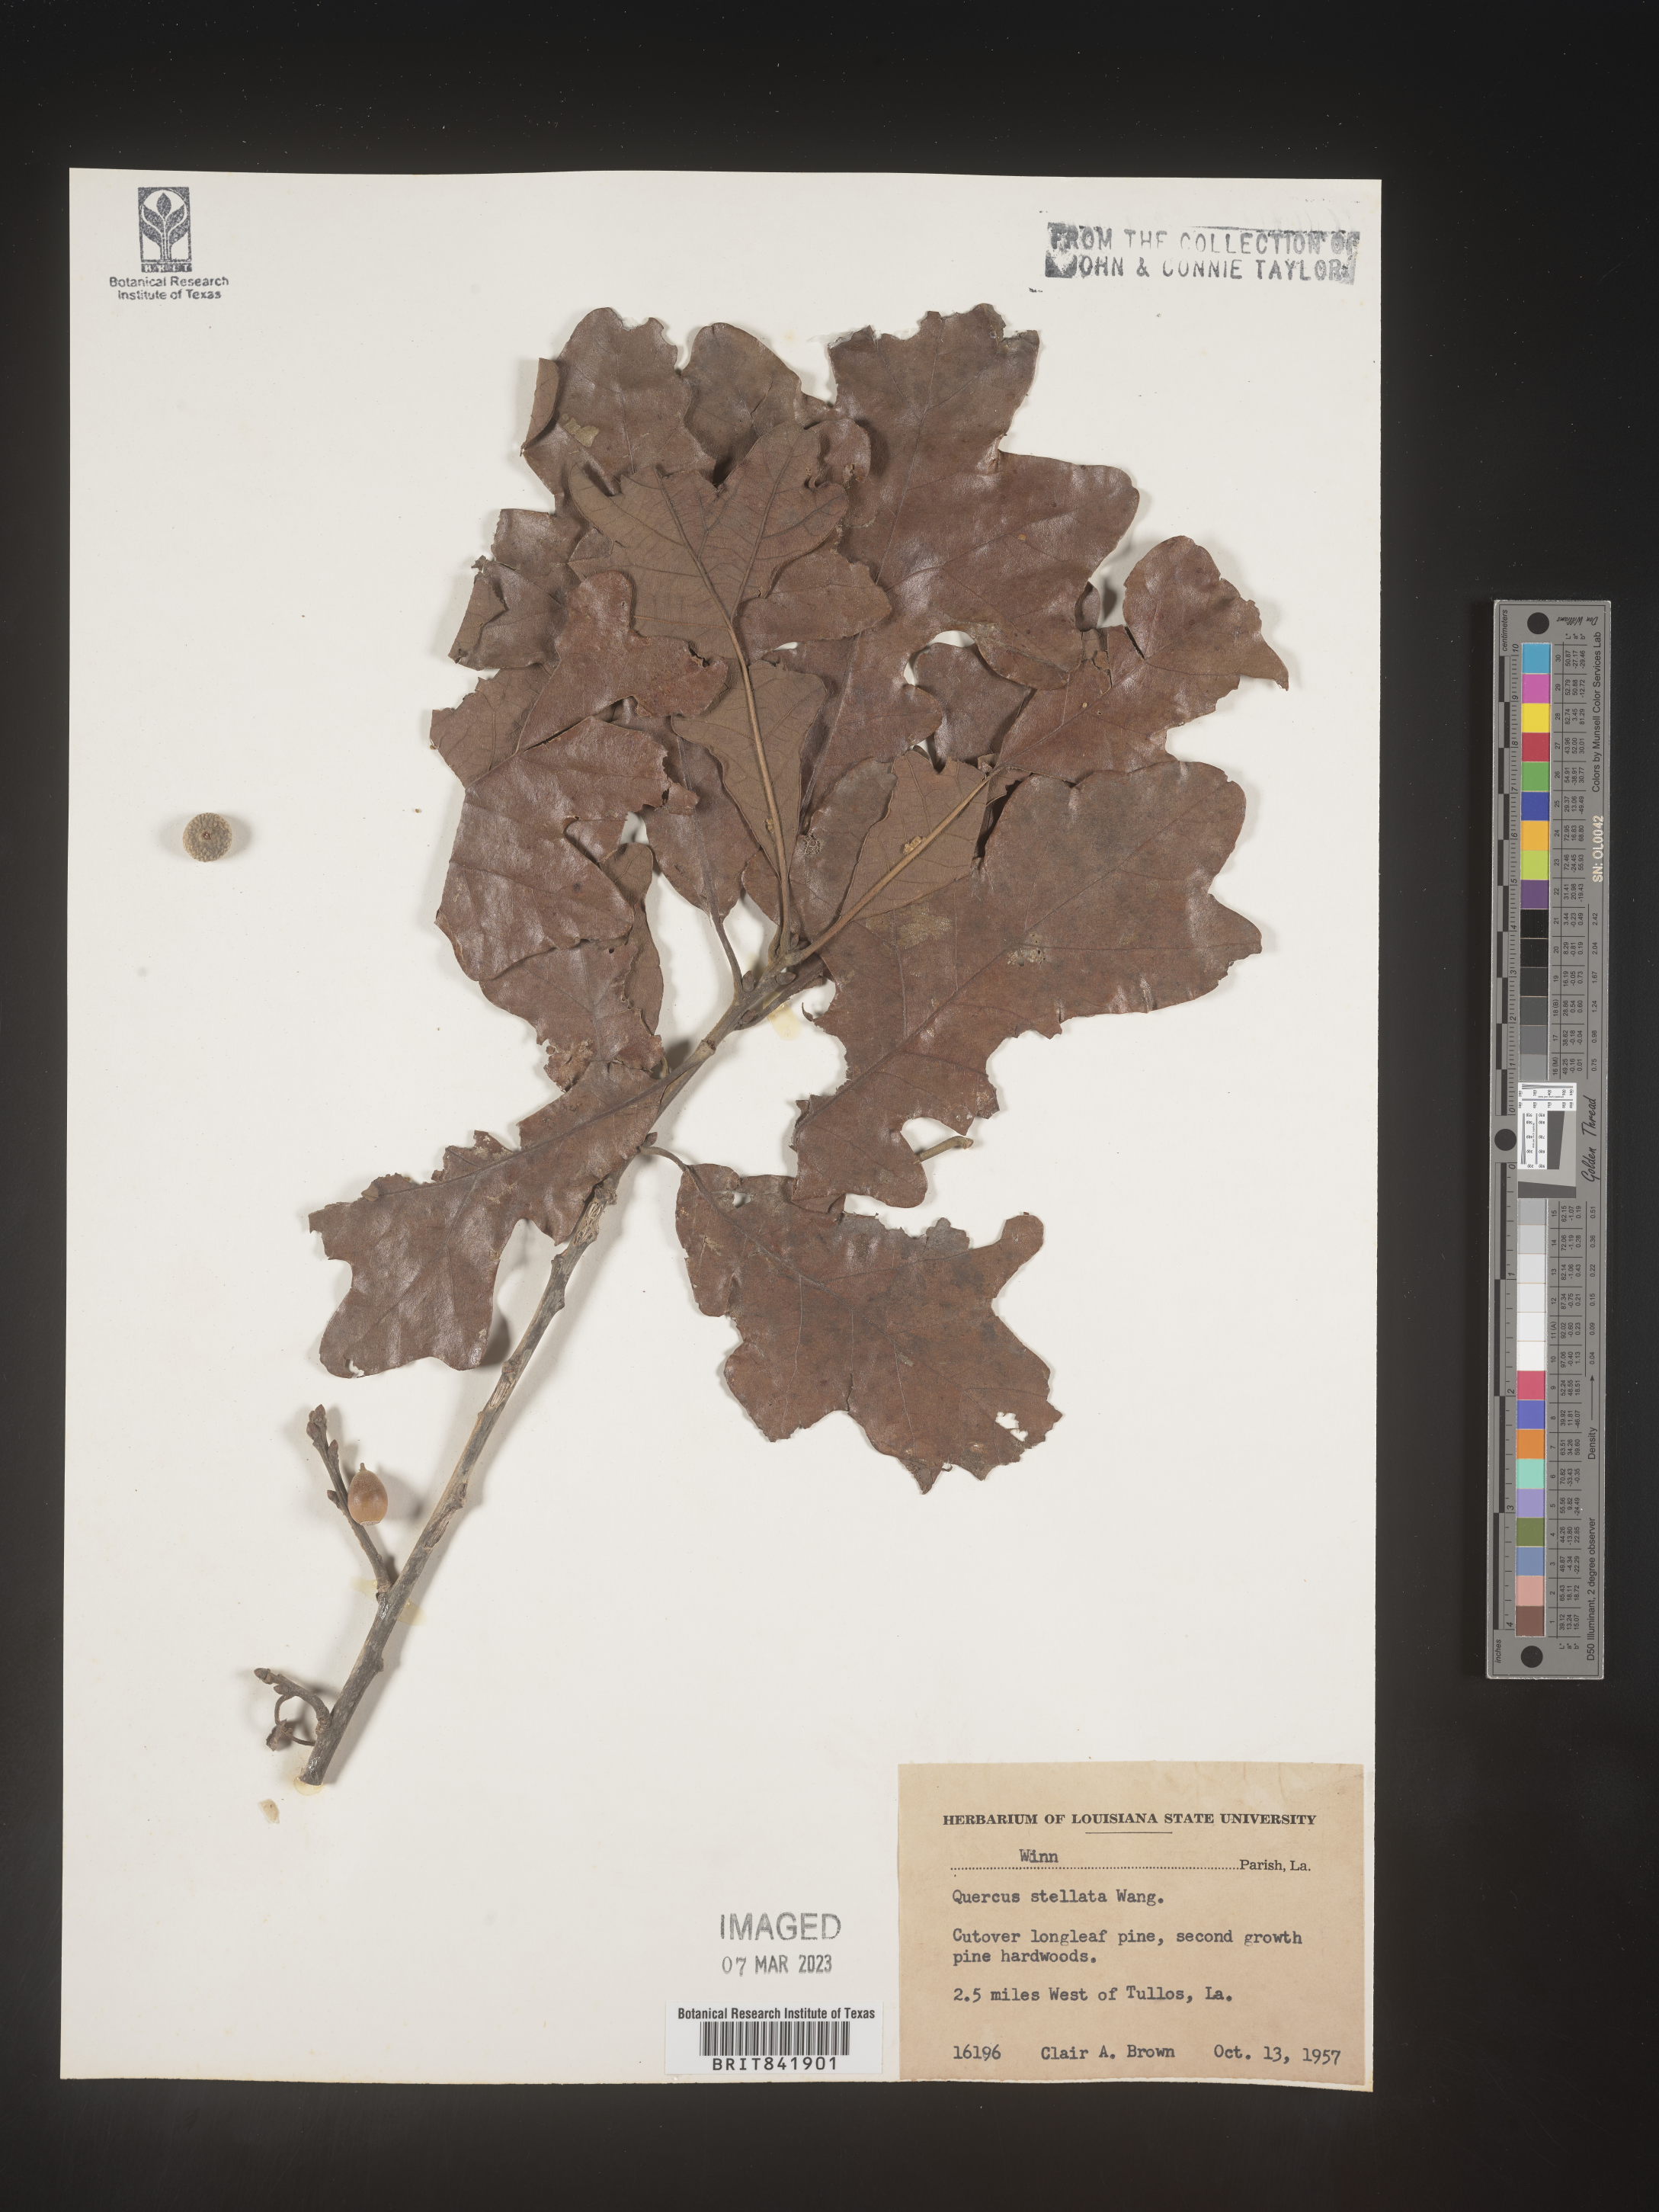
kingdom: Plantae
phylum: Tracheophyta
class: Magnoliopsida
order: Fagales
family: Fagaceae
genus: Quercus
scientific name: Quercus stellata
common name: Post oak
